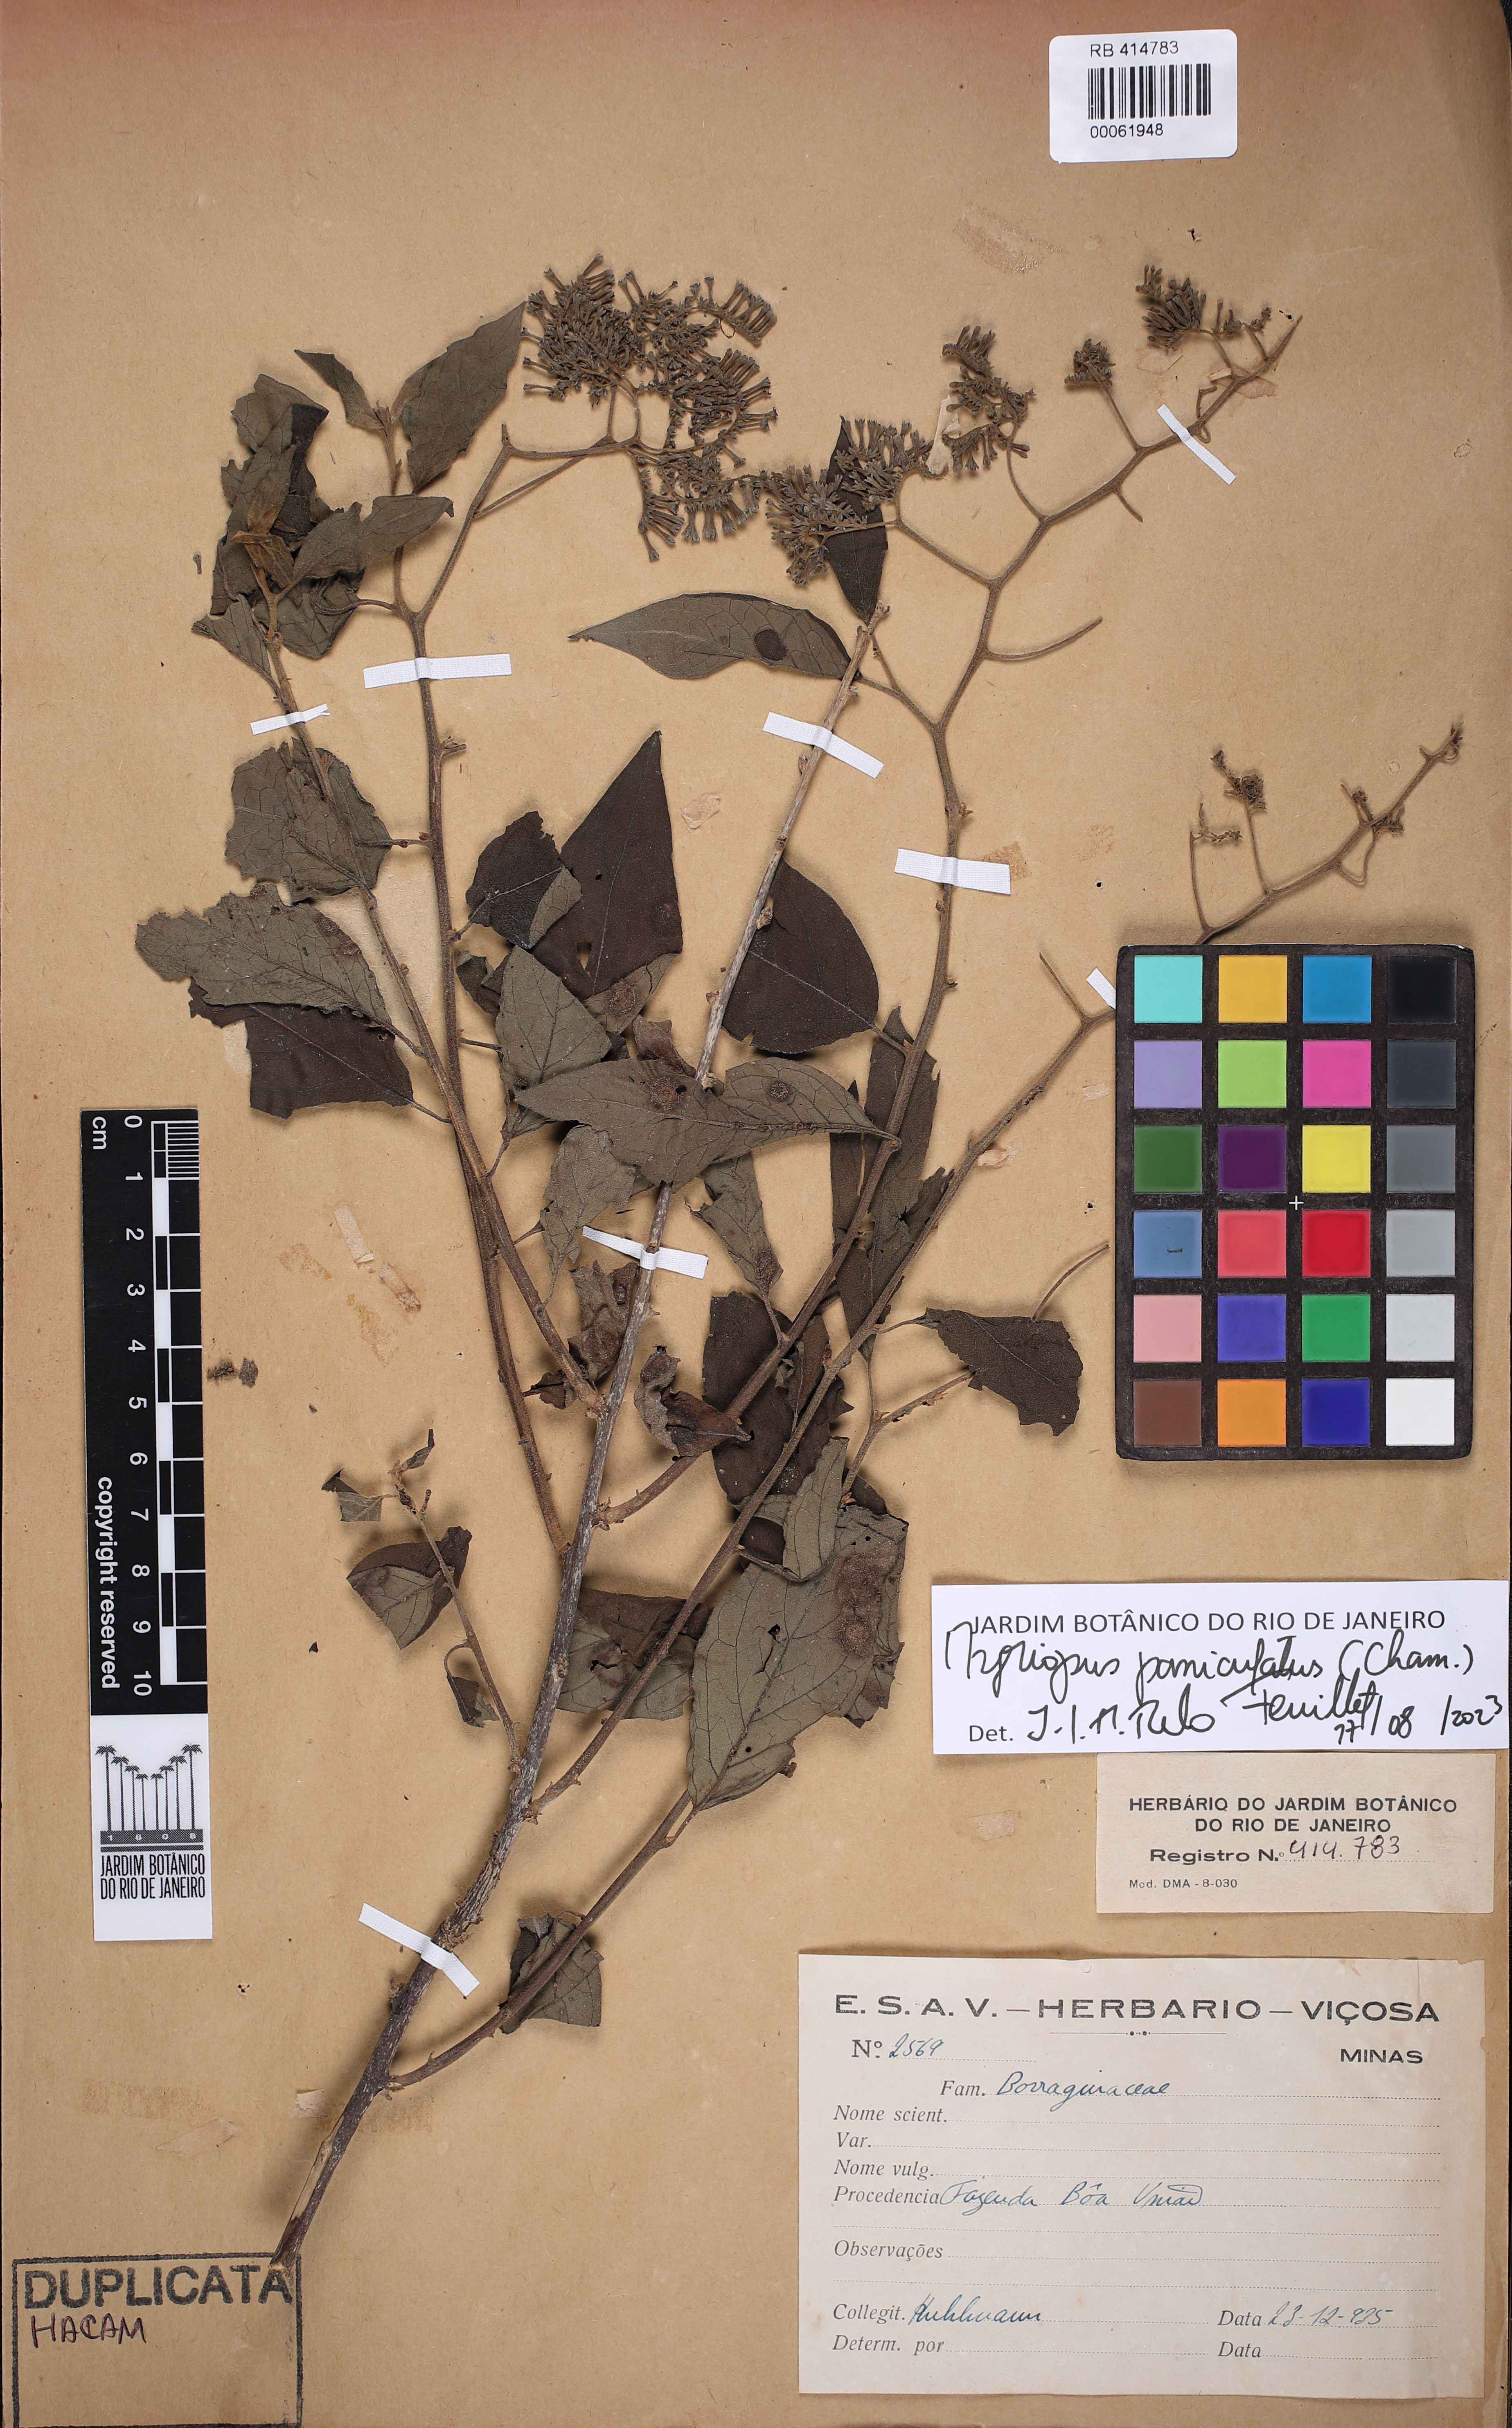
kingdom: Plantae
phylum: Tracheophyta
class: Magnoliopsida
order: Boraginales
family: Heliotropiaceae
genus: Myriopus
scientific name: Myriopus paniculatus
